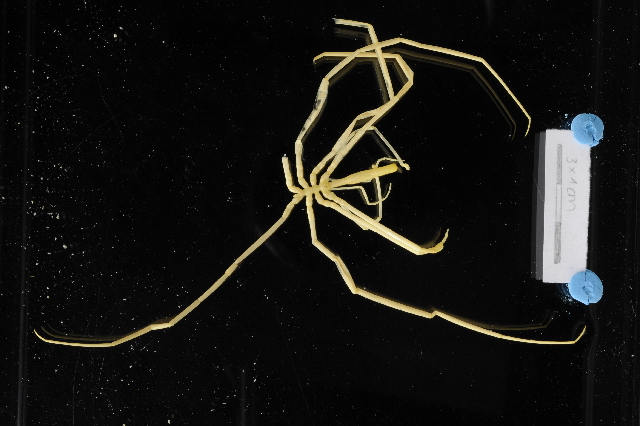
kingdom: Animalia
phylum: Arthropoda
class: Pycnogonida
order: Pantopoda
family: Colossendeidae
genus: Colossendeis
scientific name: Colossendeis megalonyx
